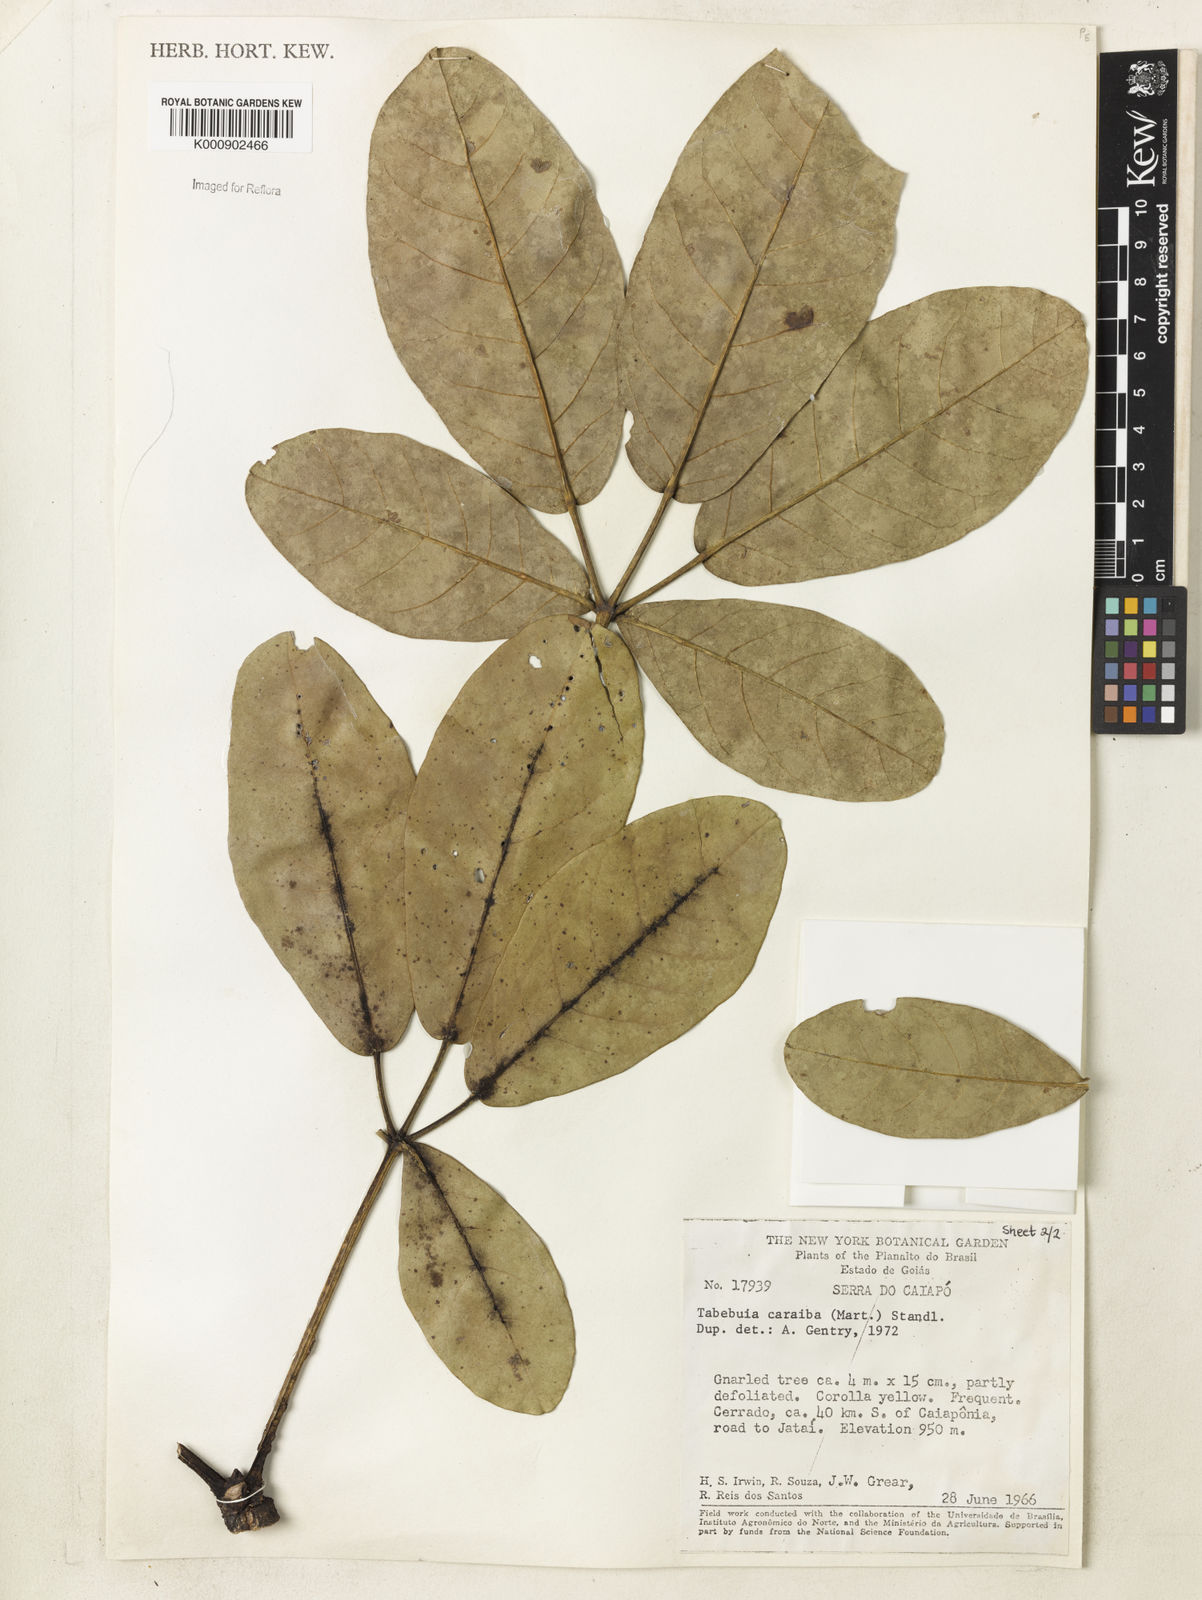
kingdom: Plantae
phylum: Tracheophyta
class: Magnoliopsida
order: Lamiales
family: Bignoniaceae
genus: Tabebuia
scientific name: Tabebuia aurea
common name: Caribbean trumpet-tree
